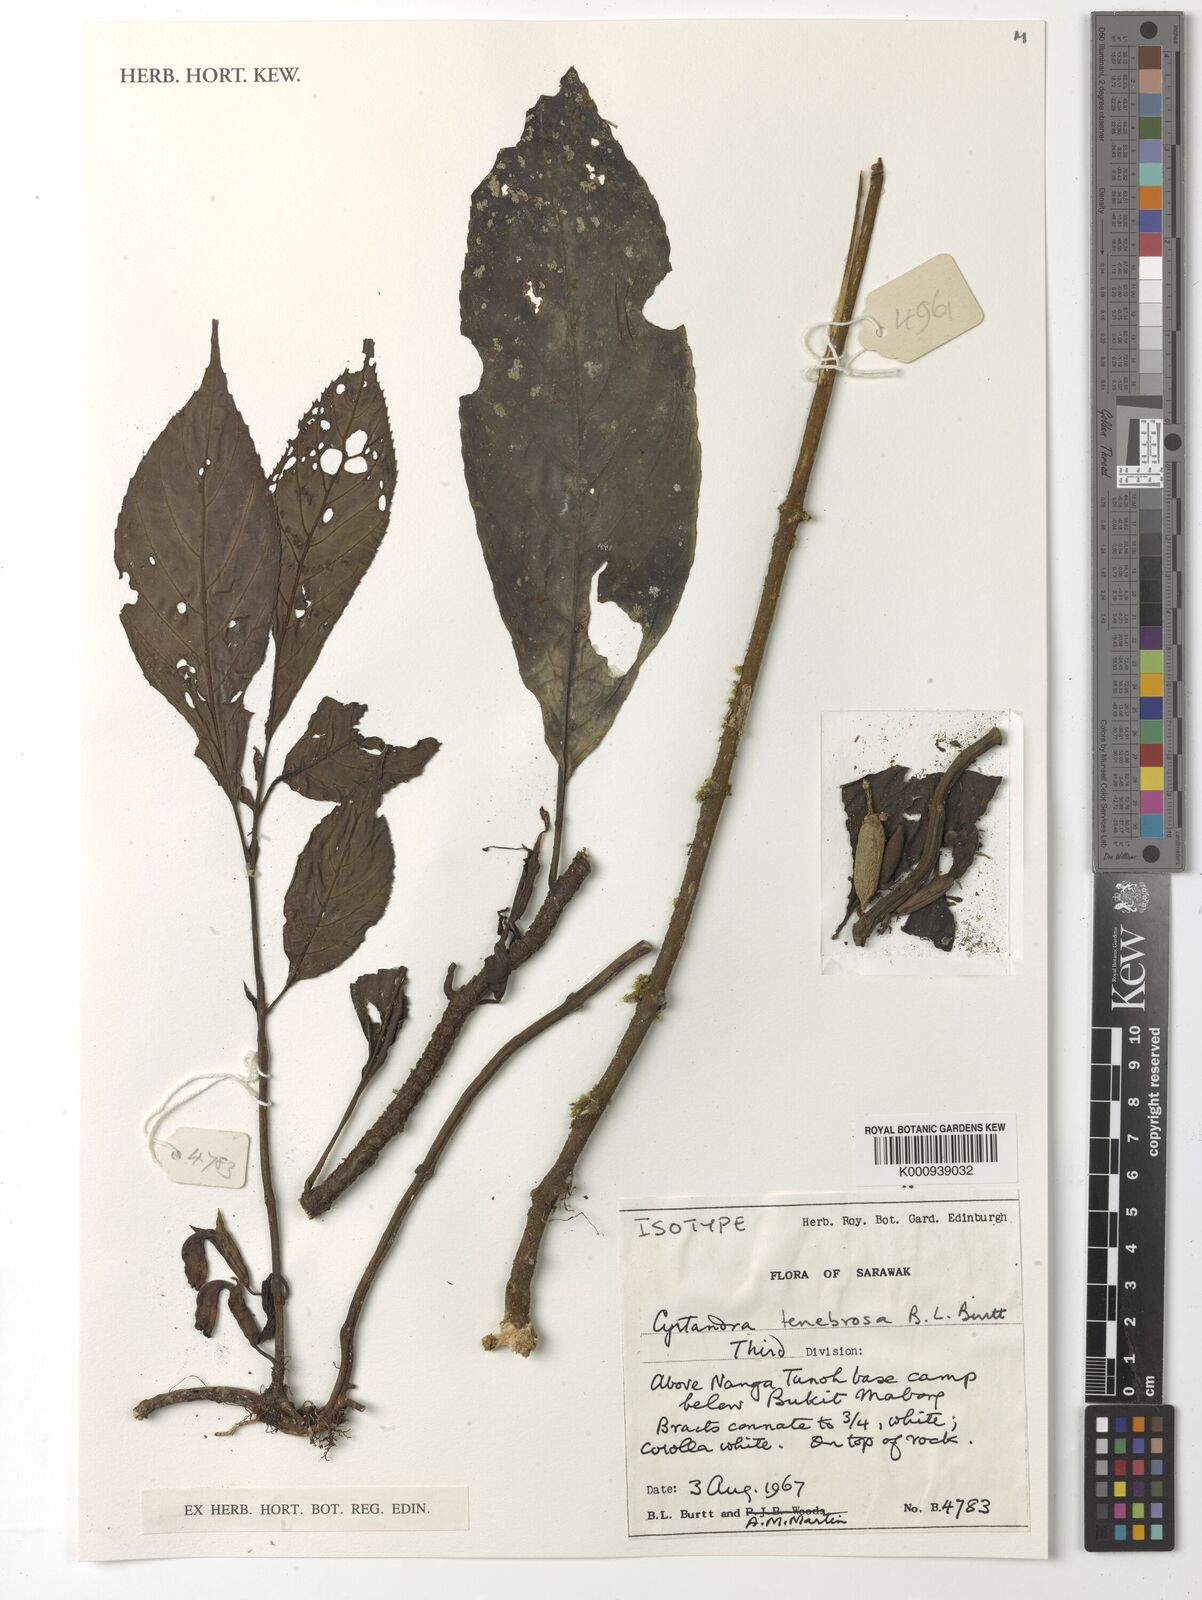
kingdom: Plantae
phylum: Tracheophyta
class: Magnoliopsida
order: Lamiales
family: Gesneriaceae
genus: Cyrtandra
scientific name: Cyrtandra tenebrosa
